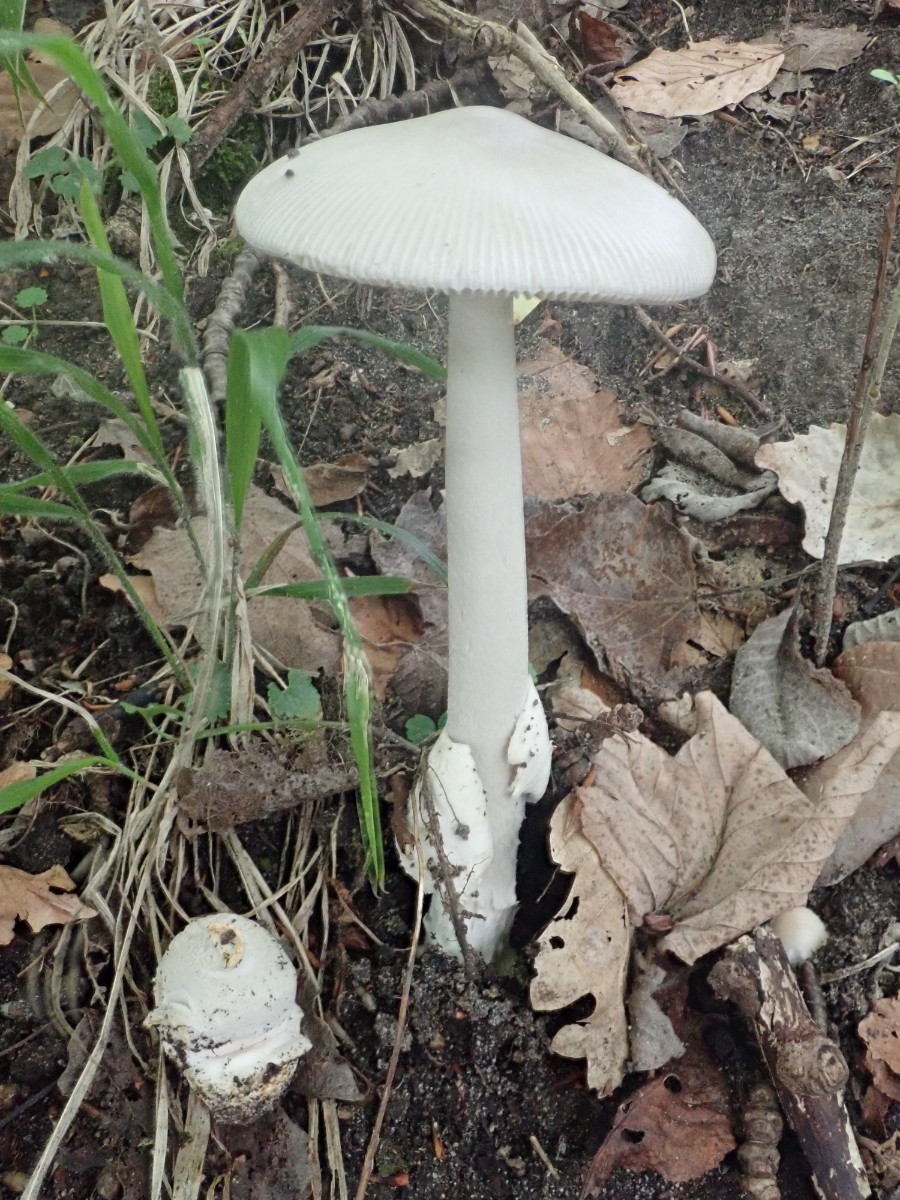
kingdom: Fungi
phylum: Basidiomycota
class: Agaricomycetes
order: Agaricales
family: Amanitaceae
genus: Amanita
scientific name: Amanita vaginata
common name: grå kam-fluesvamp
